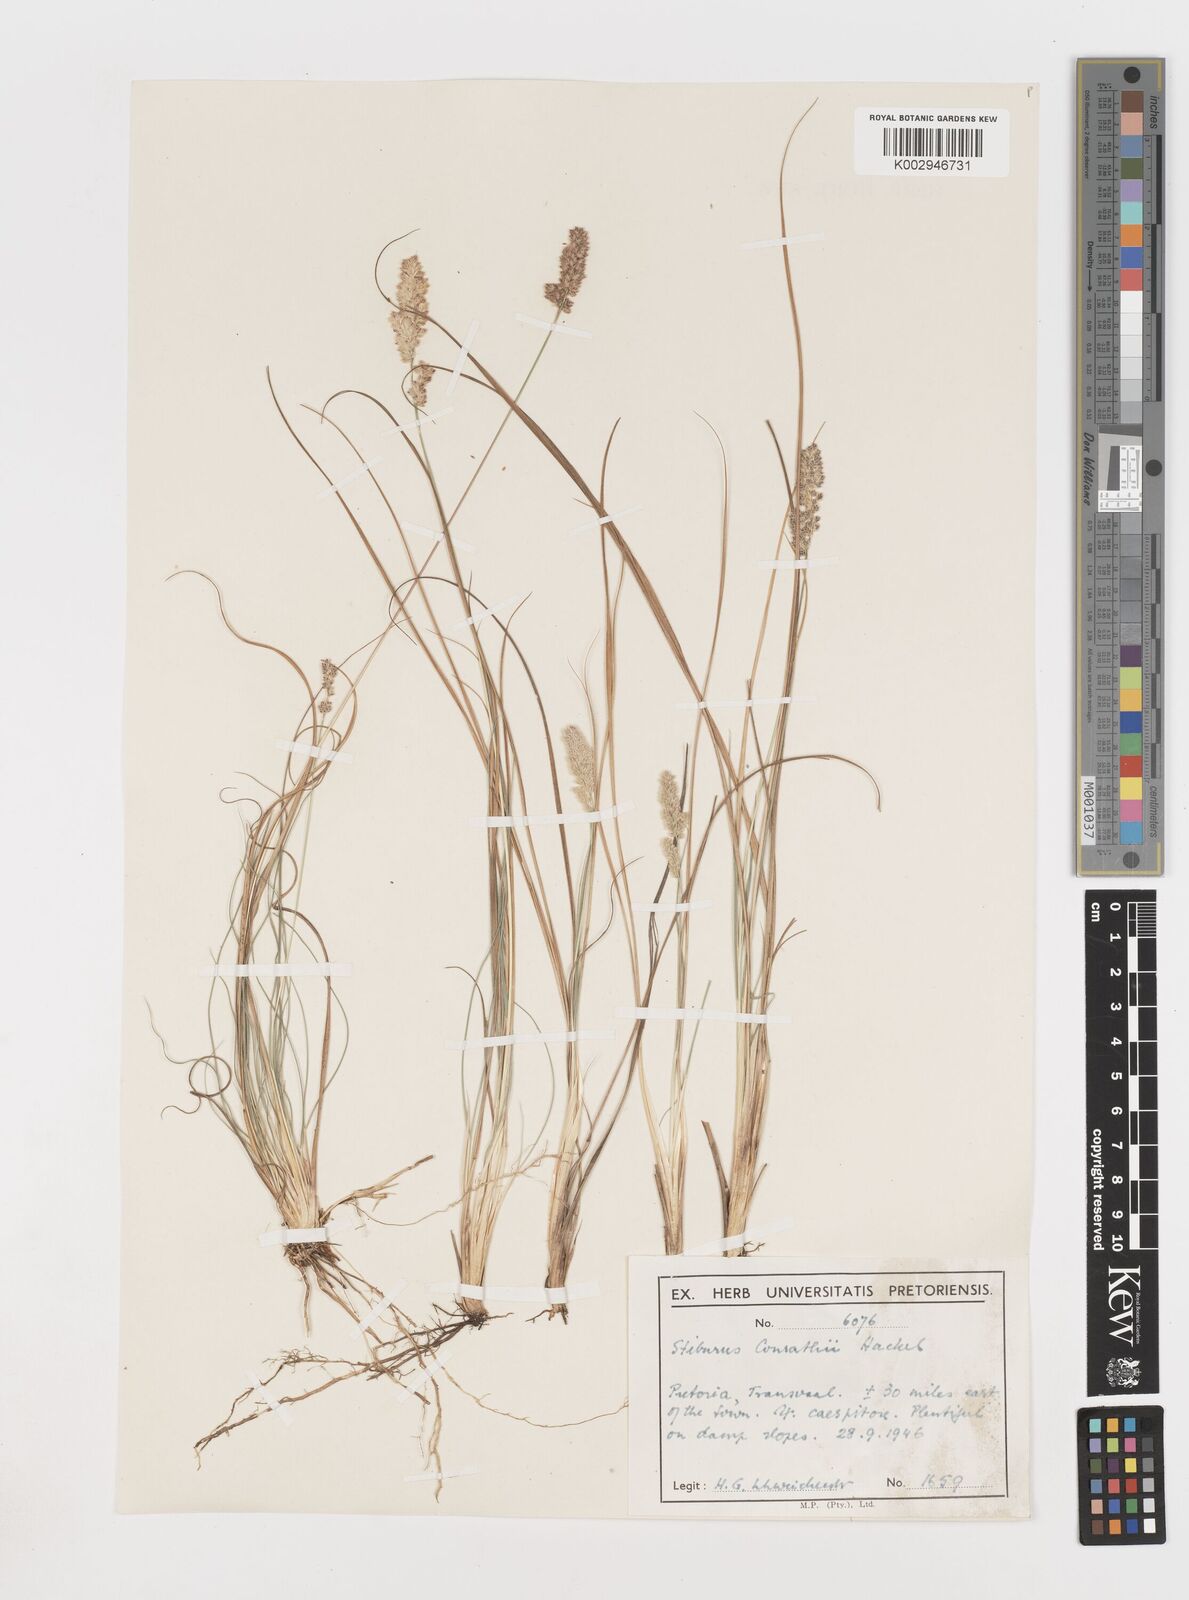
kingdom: Plantae
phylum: Tracheophyta
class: Liliopsida
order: Poales
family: Poaceae
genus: Stiburus
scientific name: Stiburus conrathii
